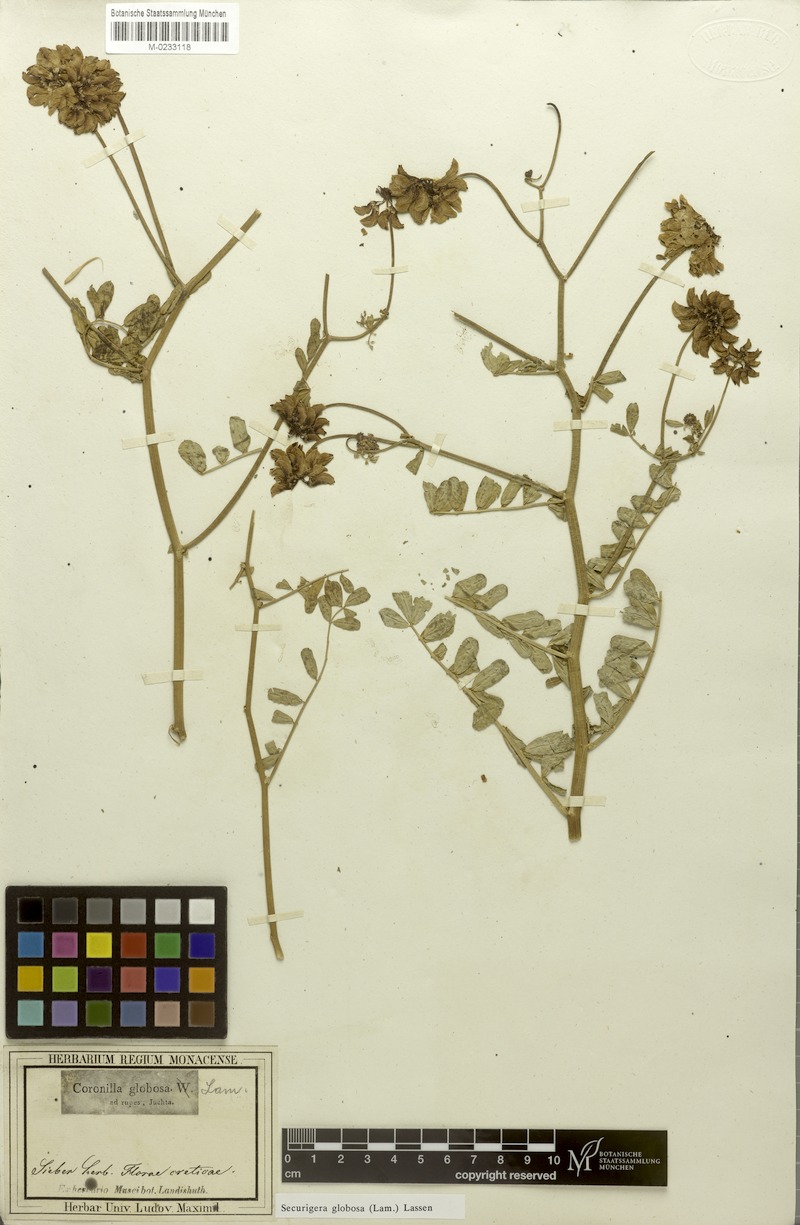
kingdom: Plantae
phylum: Tracheophyta
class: Magnoliopsida
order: Fabales
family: Fabaceae
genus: Coronilla
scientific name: Coronilla globosa
